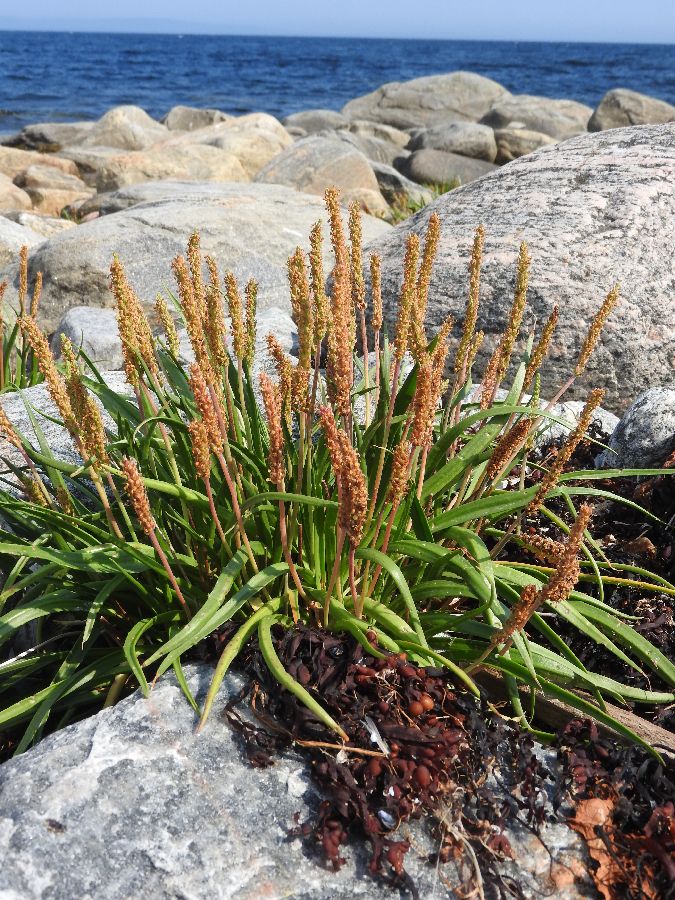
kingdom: Plantae
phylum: Tracheophyta
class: Magnoliopsida
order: Lamiales
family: Plantaginaceae
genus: Plantago
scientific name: Plantago maritima
